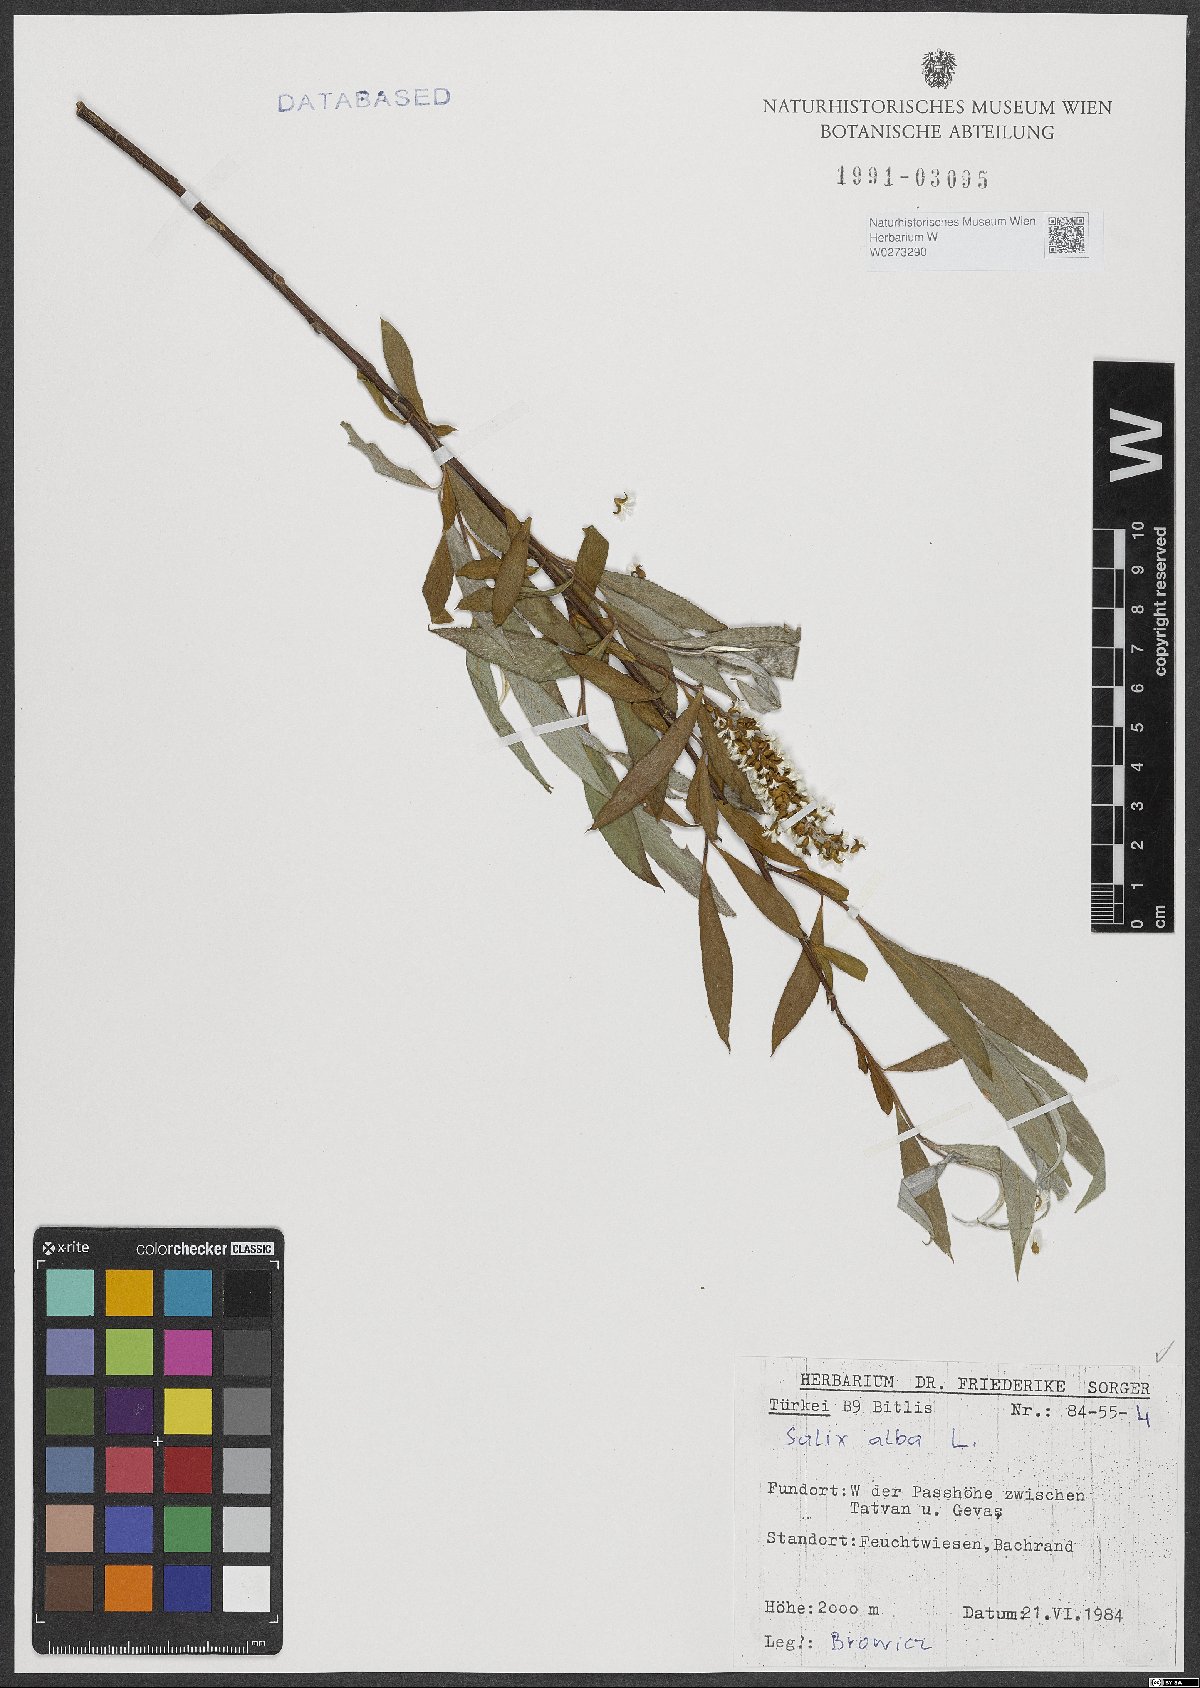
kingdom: Plantae
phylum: Tracheophyta
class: Magnoliopsida
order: Malpighiales
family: Salicaceae
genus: Salix
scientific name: Salix alba
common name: White willow
